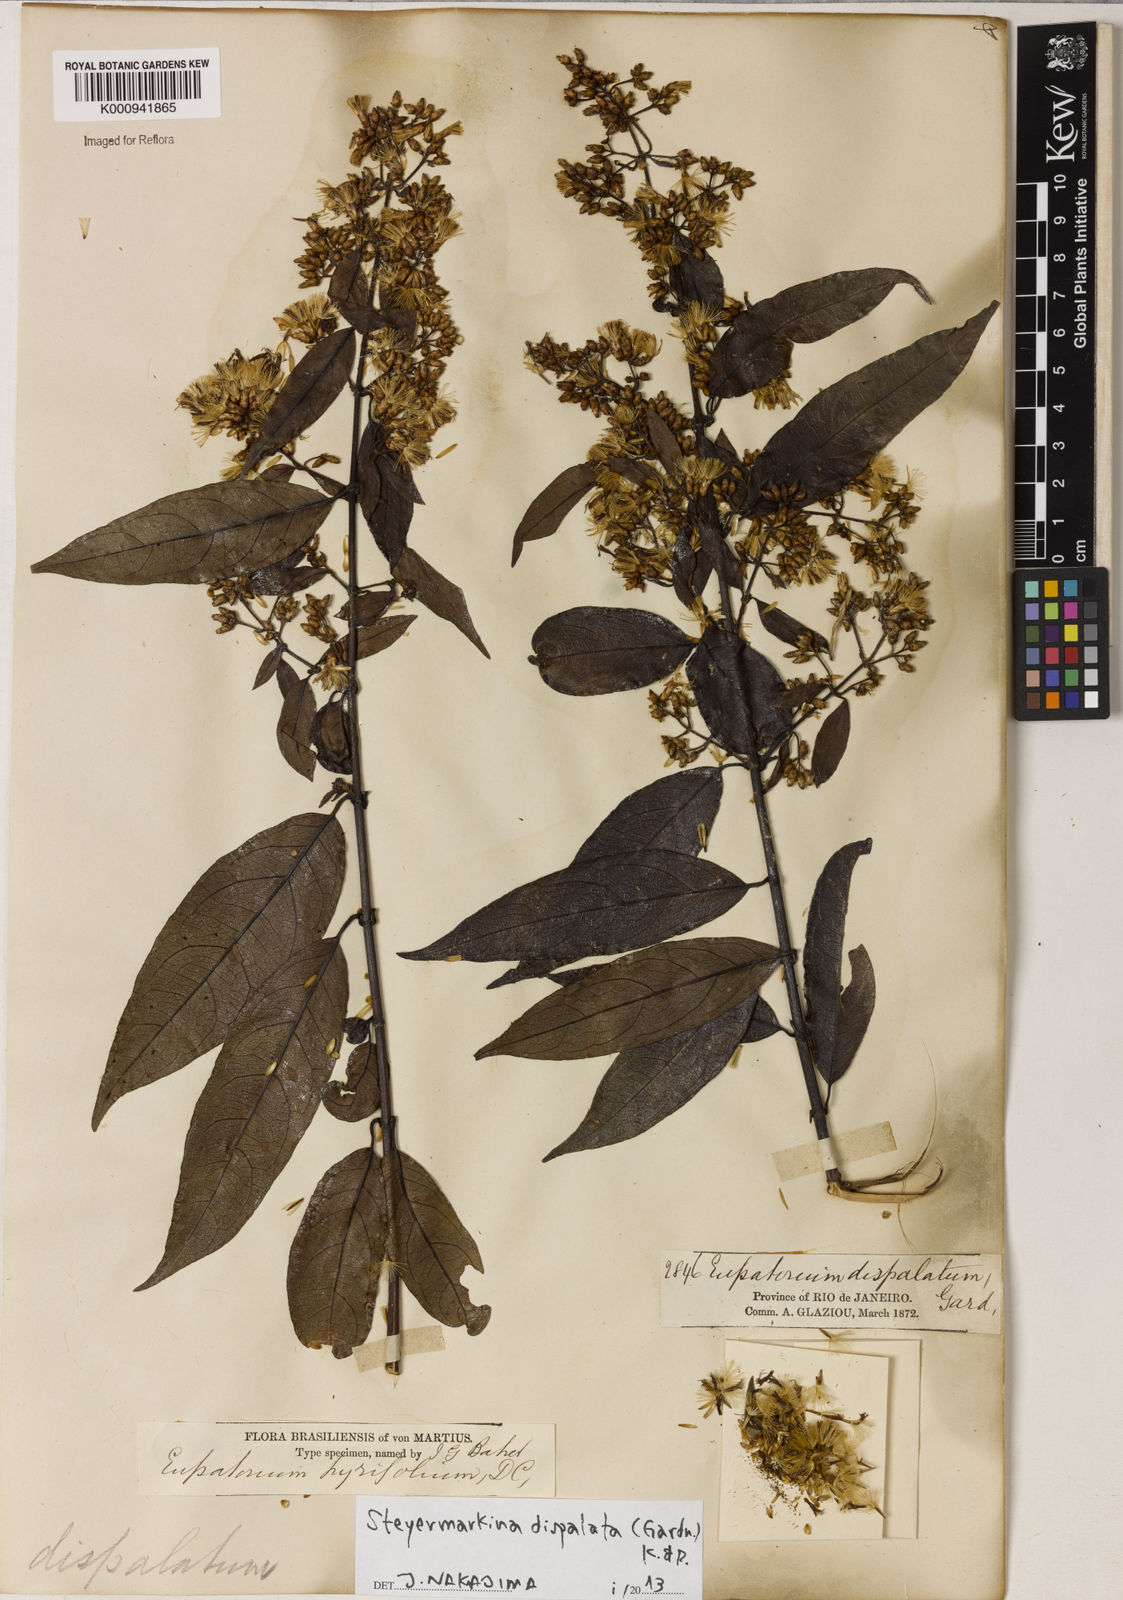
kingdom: Plantae
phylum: Tracheophyta
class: Magnoliopsida
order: Asterales
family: Asteraceae
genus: Steyermarkina
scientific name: Steyermarkina dispalata
